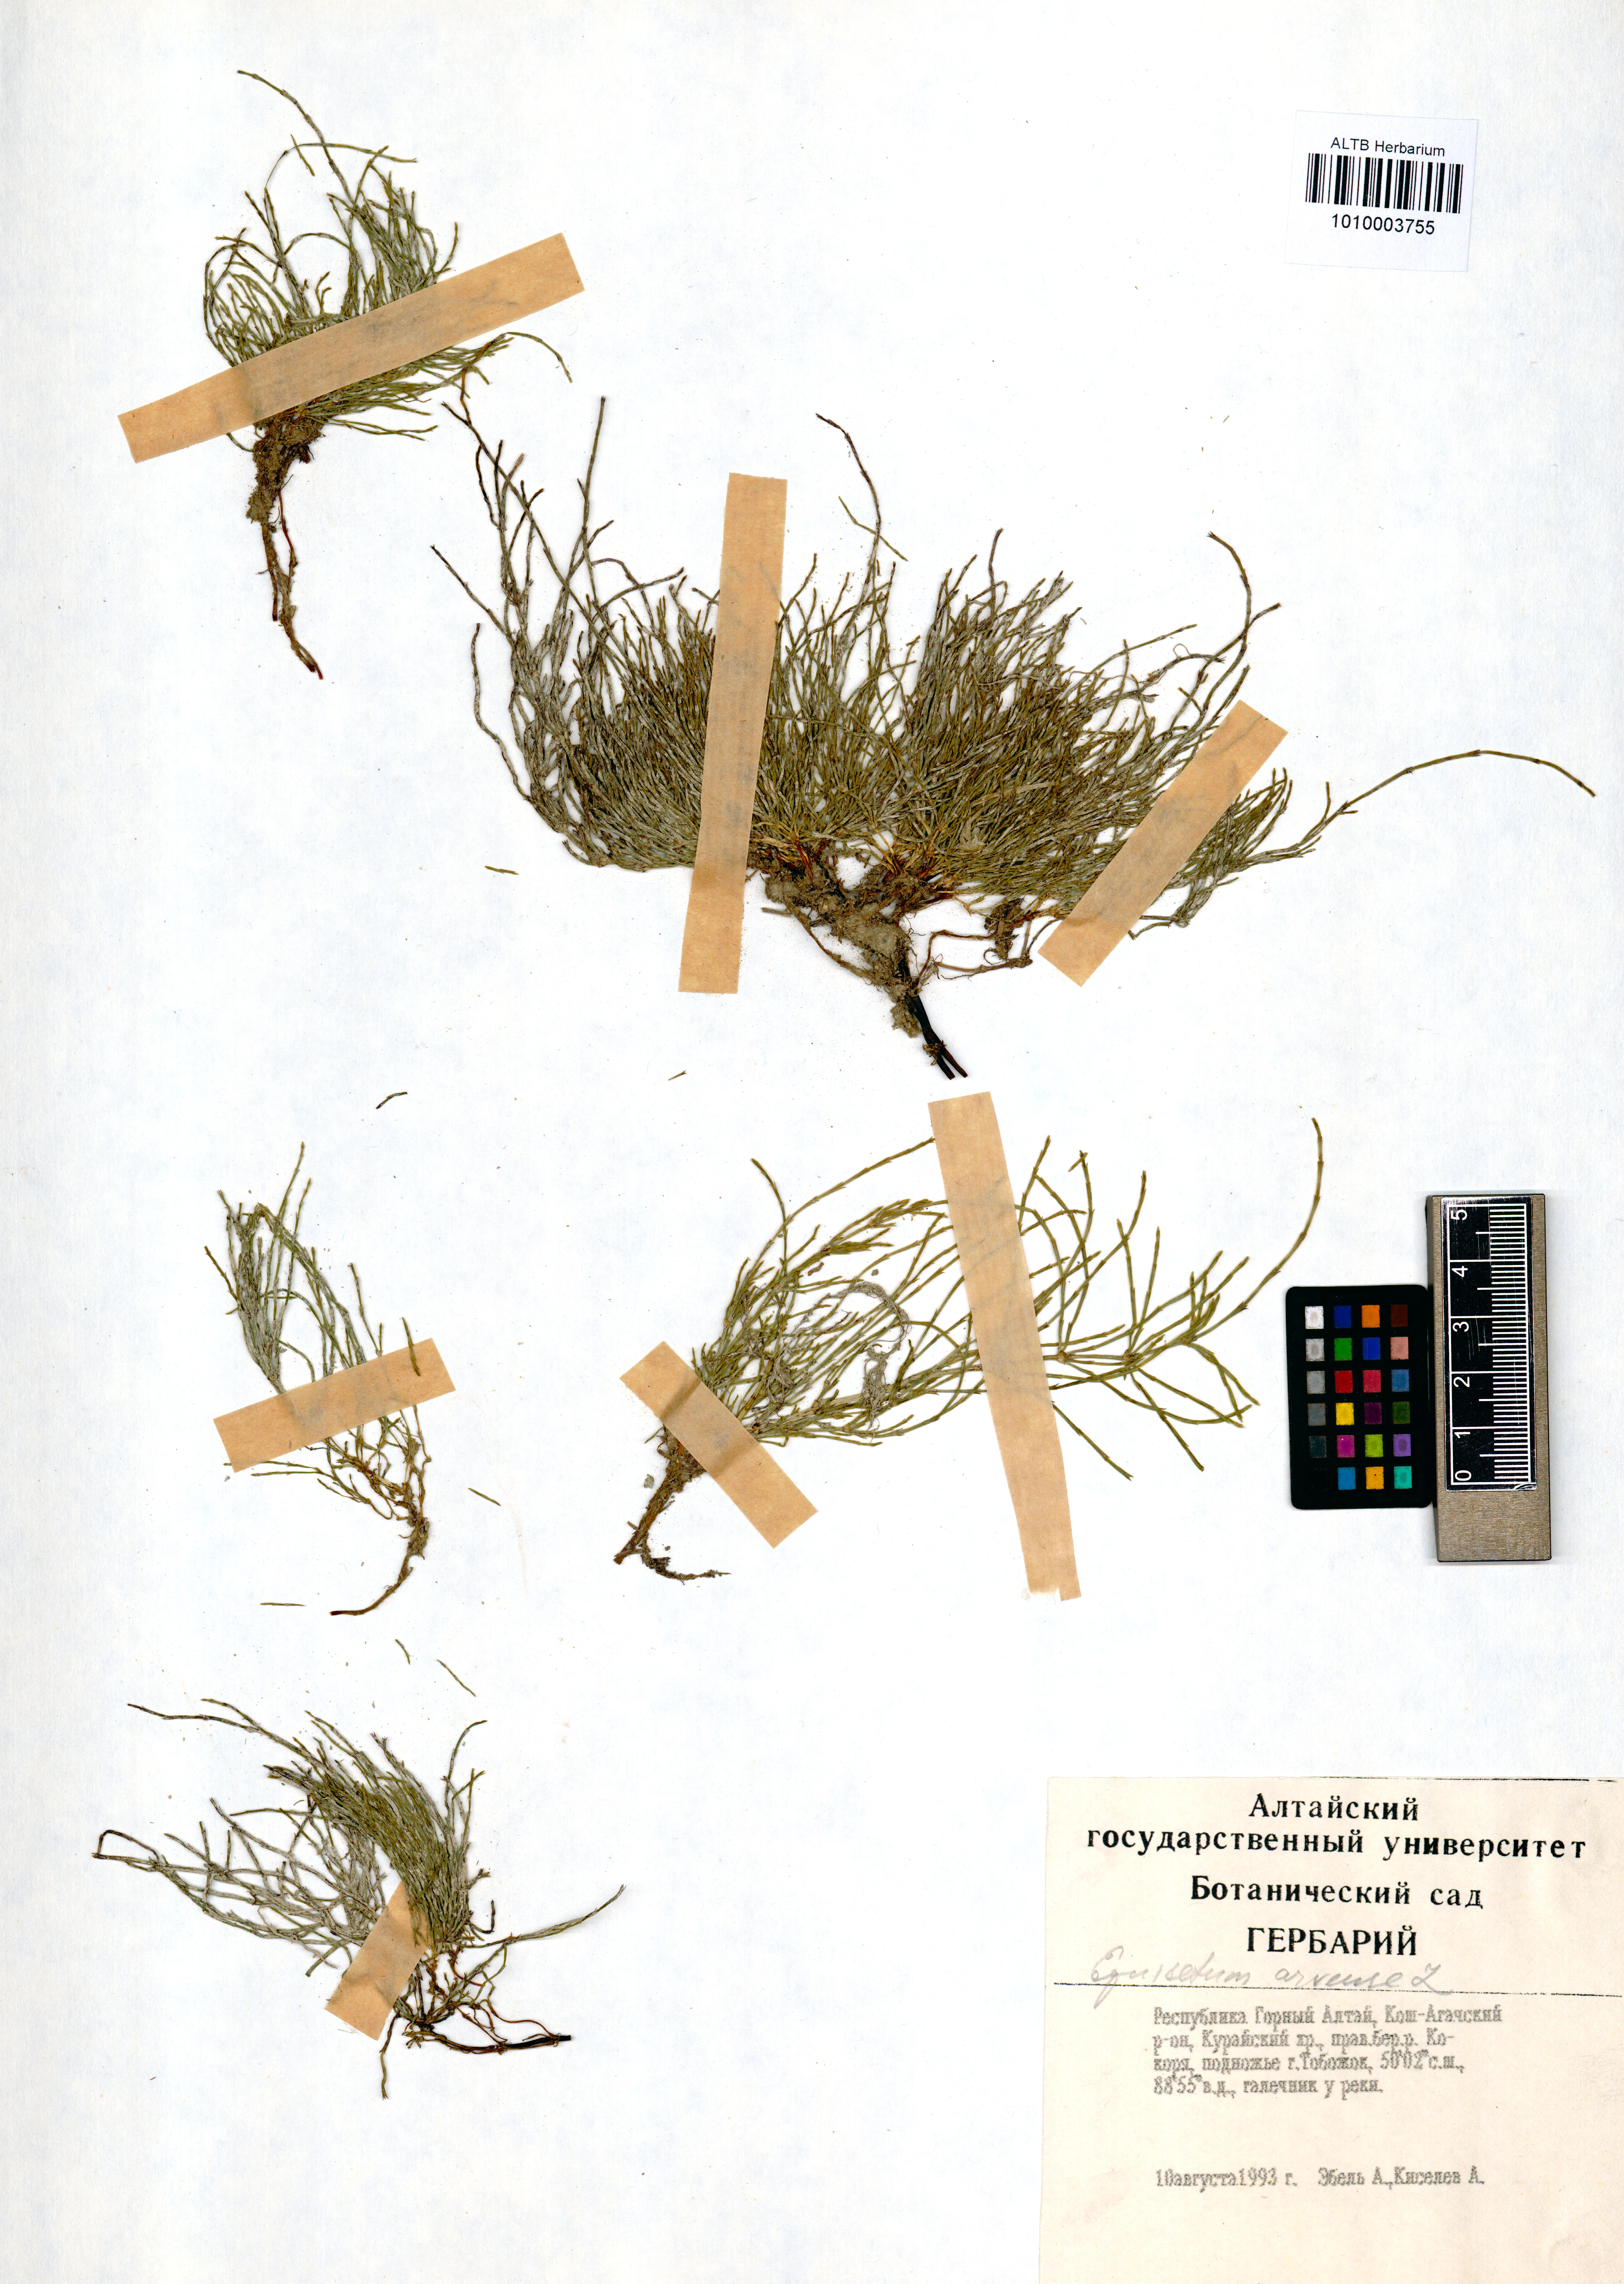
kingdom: Plantae
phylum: Tracheophyta
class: Polypodiopsida
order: Equisetales
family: Equisetaceae
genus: Equisetum
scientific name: Equisetum arvense
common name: Field horsetail
